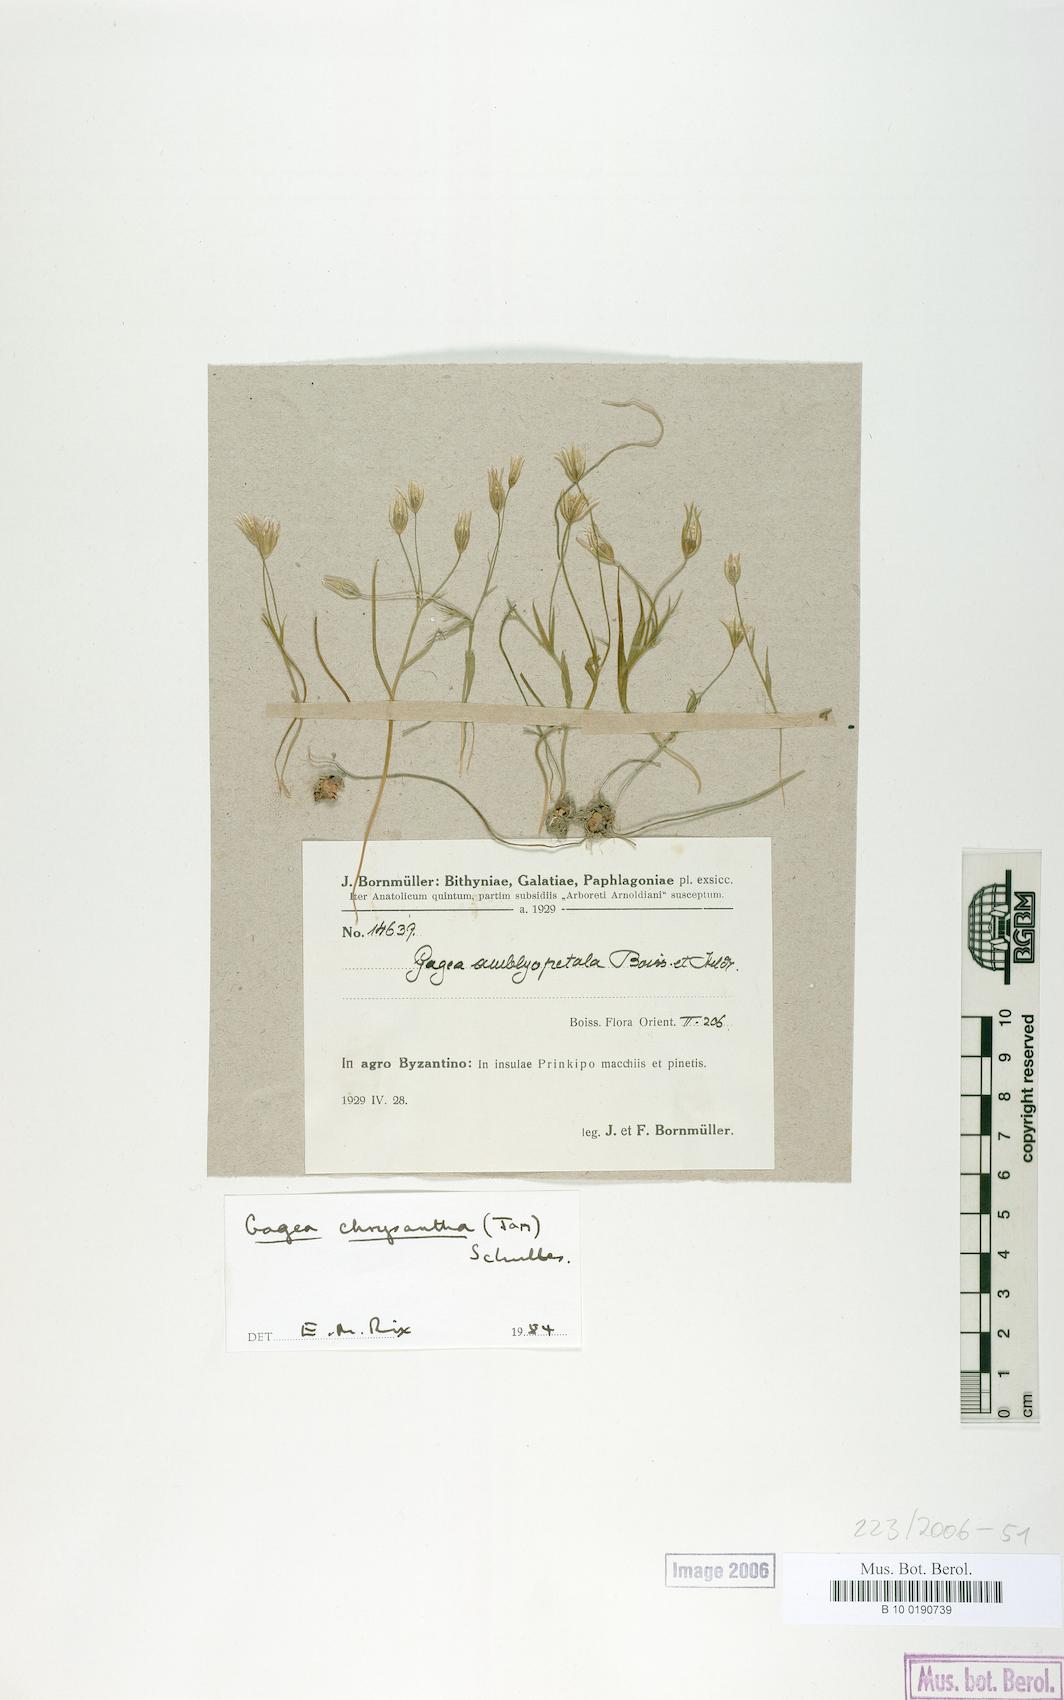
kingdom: Plantae
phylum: Tracheophyta
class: Liliopsida
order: Liliales
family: Liliaceae
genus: Gagea
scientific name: Gagea chrysantha
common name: Golden gagea
